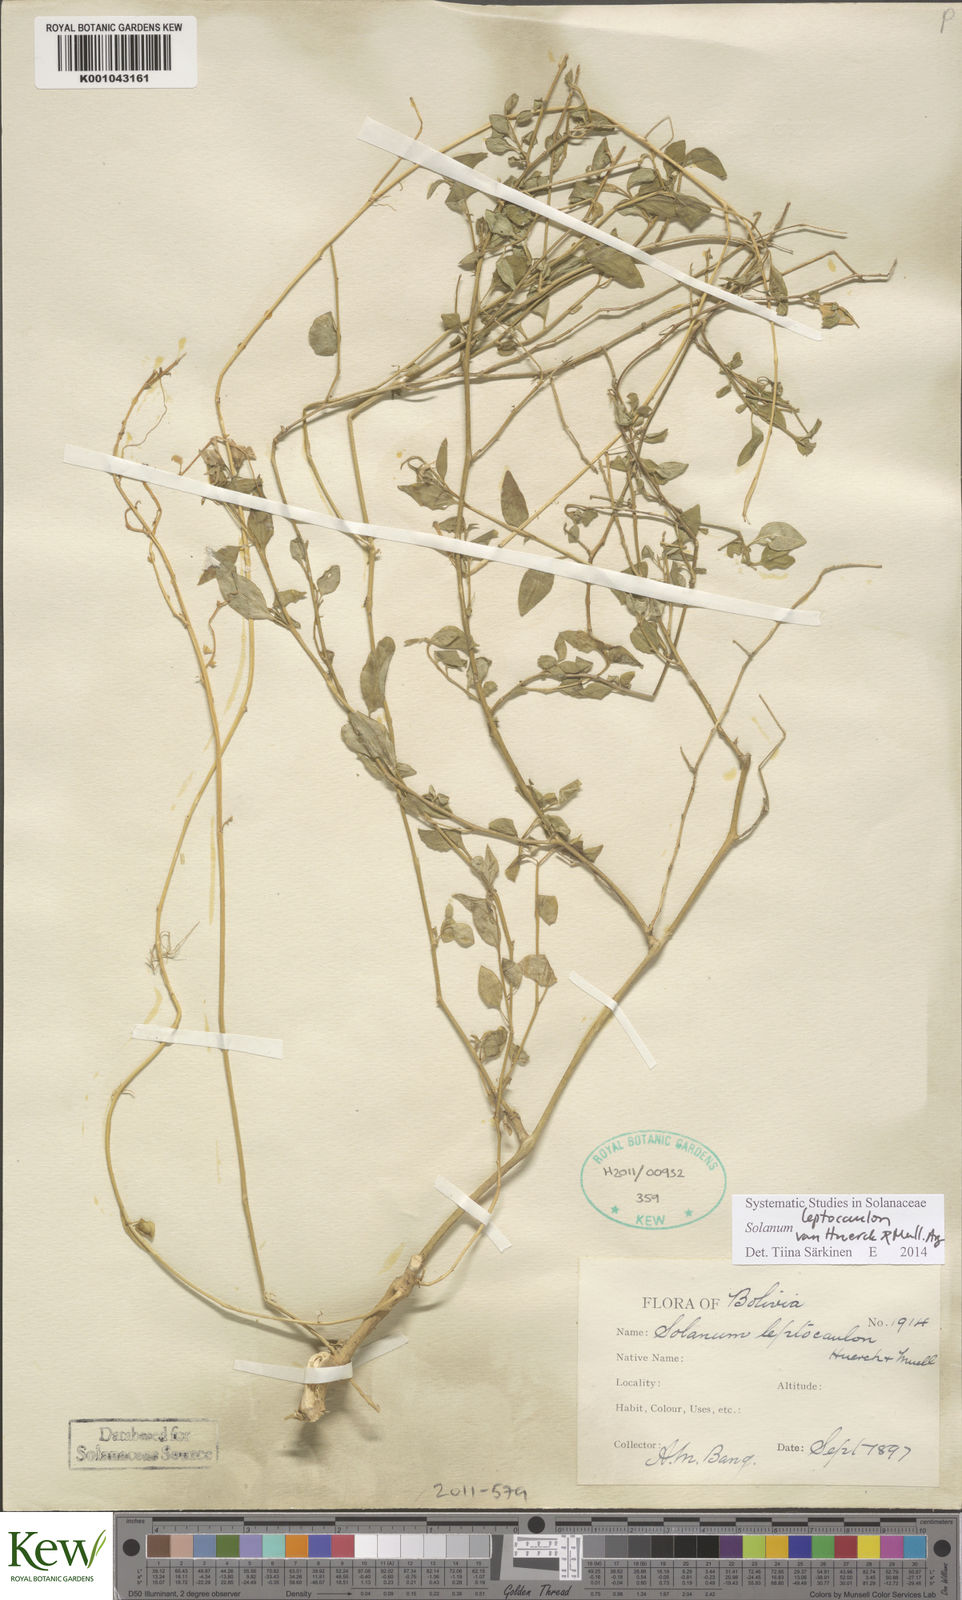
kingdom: Plantae
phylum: Tracheophyta
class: Magnoliopsida
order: Solanales
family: Solanaceae
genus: Solanum
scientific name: Solanum
